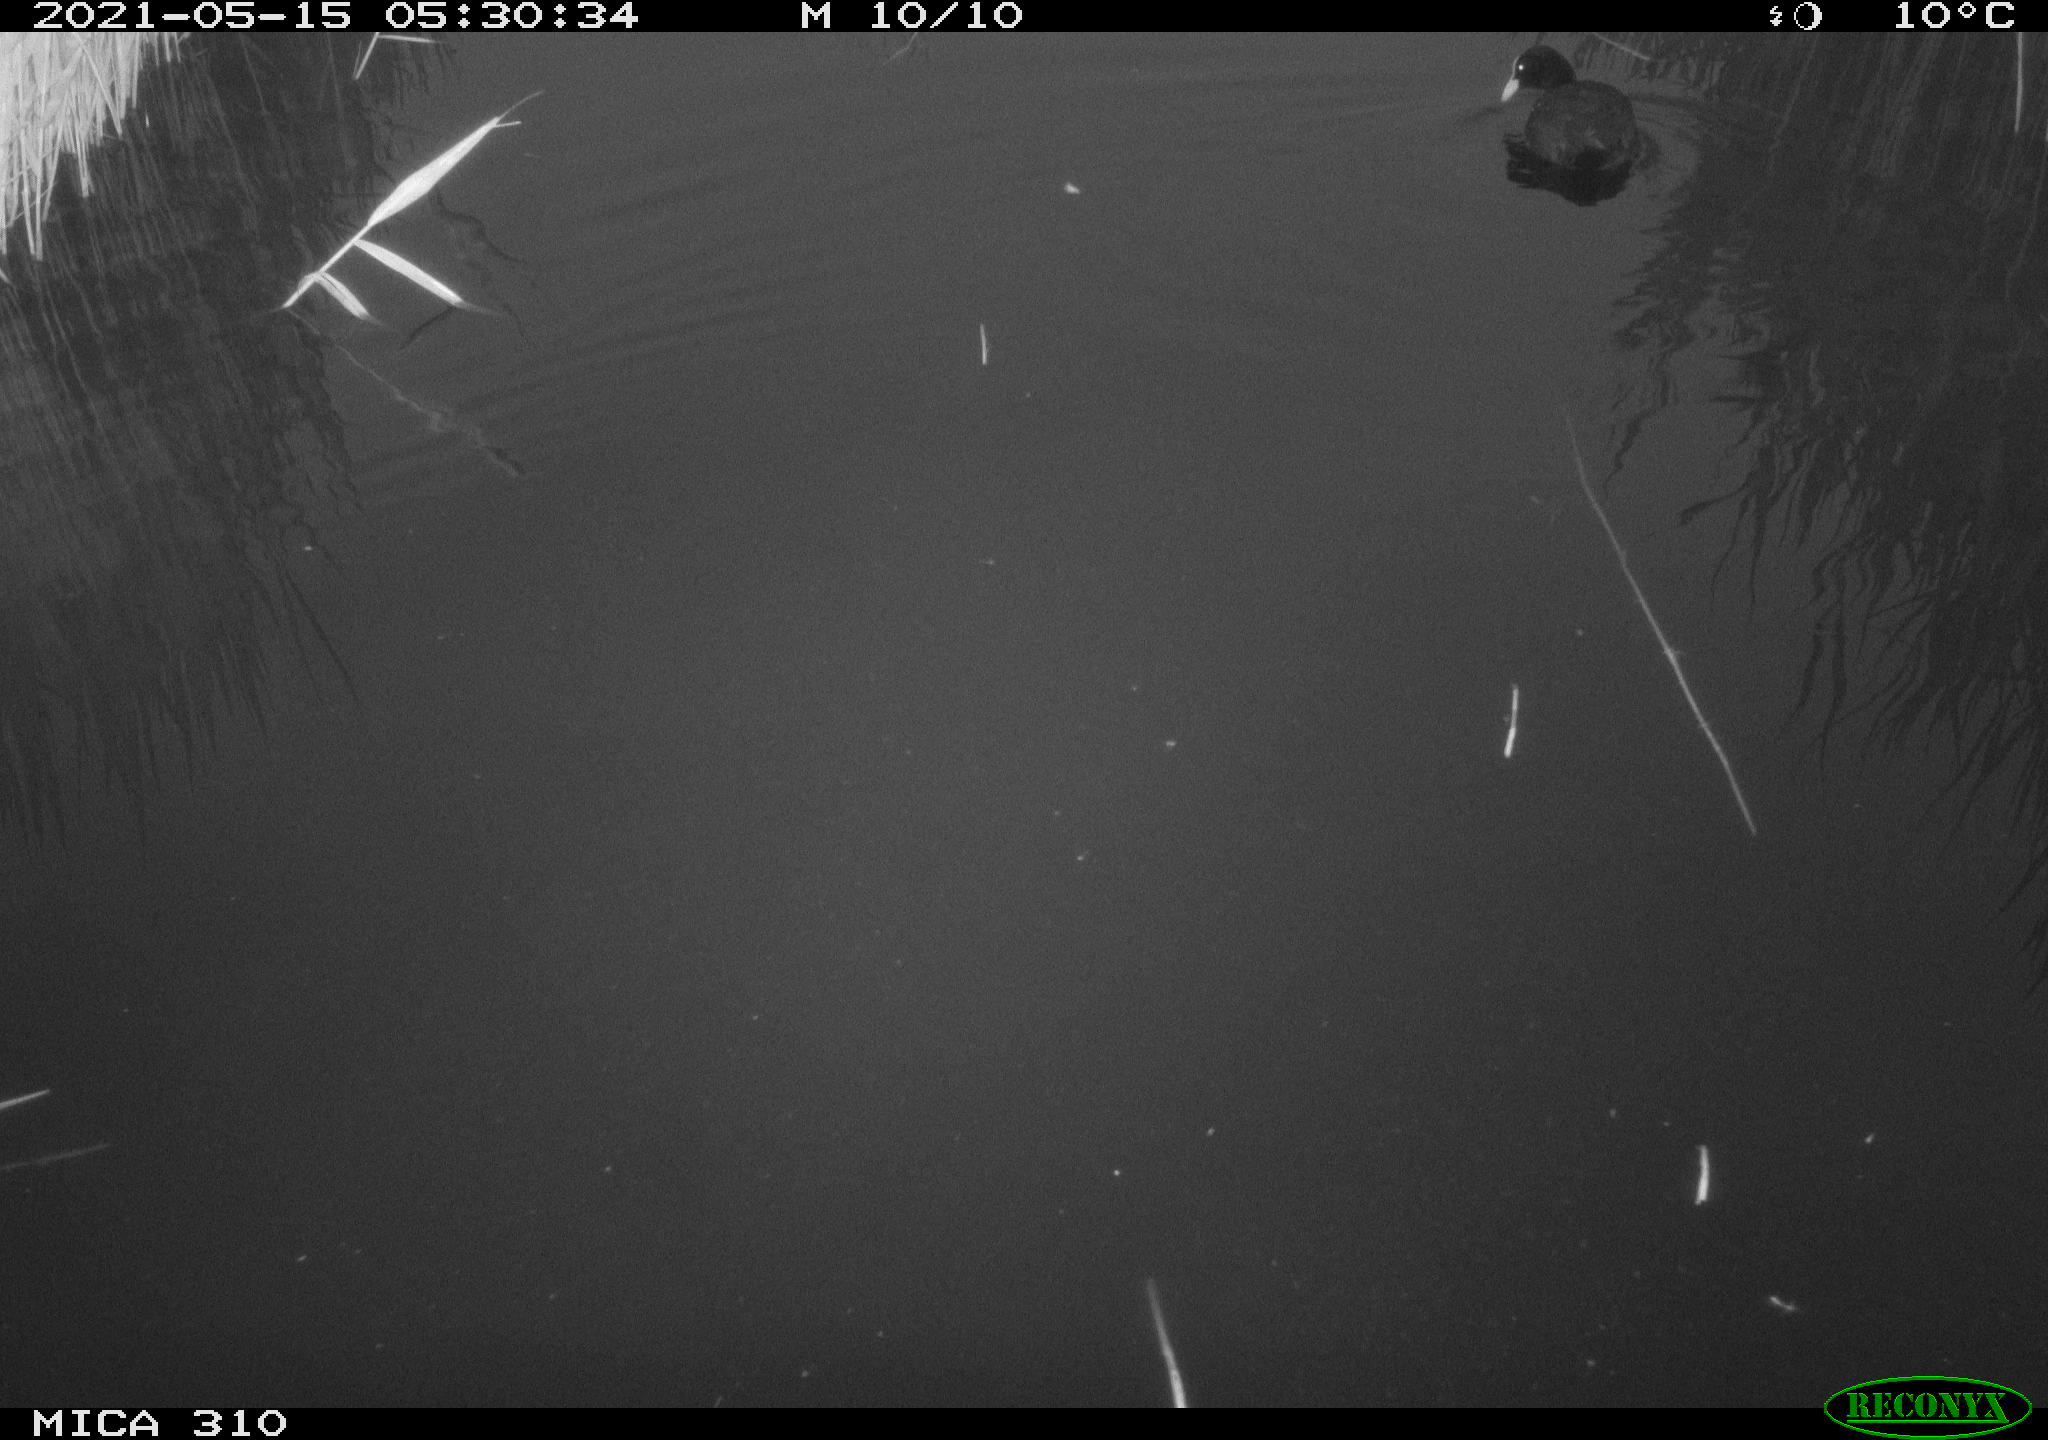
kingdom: Animalia
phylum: Chordata
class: Aves
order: Gruiformes
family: Rallidae
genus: Fulica
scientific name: Fulica atra
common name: Eurasian coot
